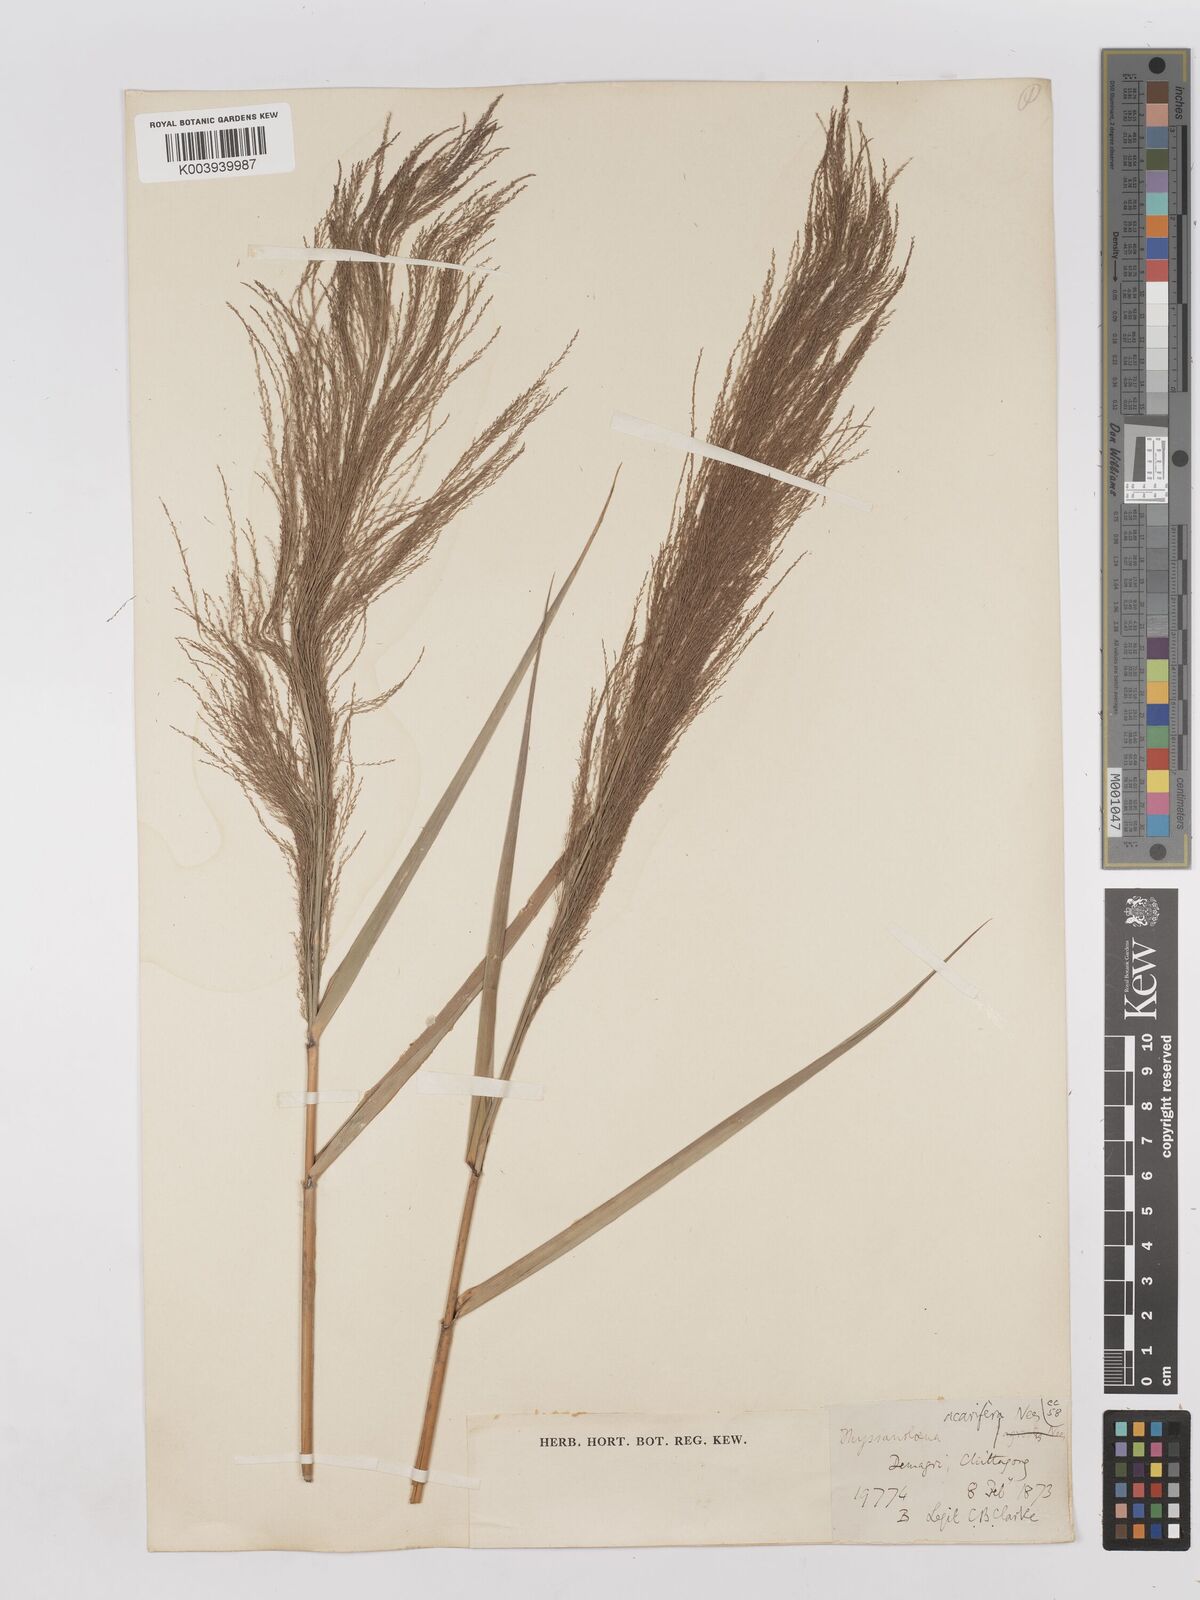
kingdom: Plantae
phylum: Tracheophyta
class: Liliopsida
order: Poales
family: Poaceae
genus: Thysanolaena
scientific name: Thysanolaena latifolia
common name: Tiger grass
